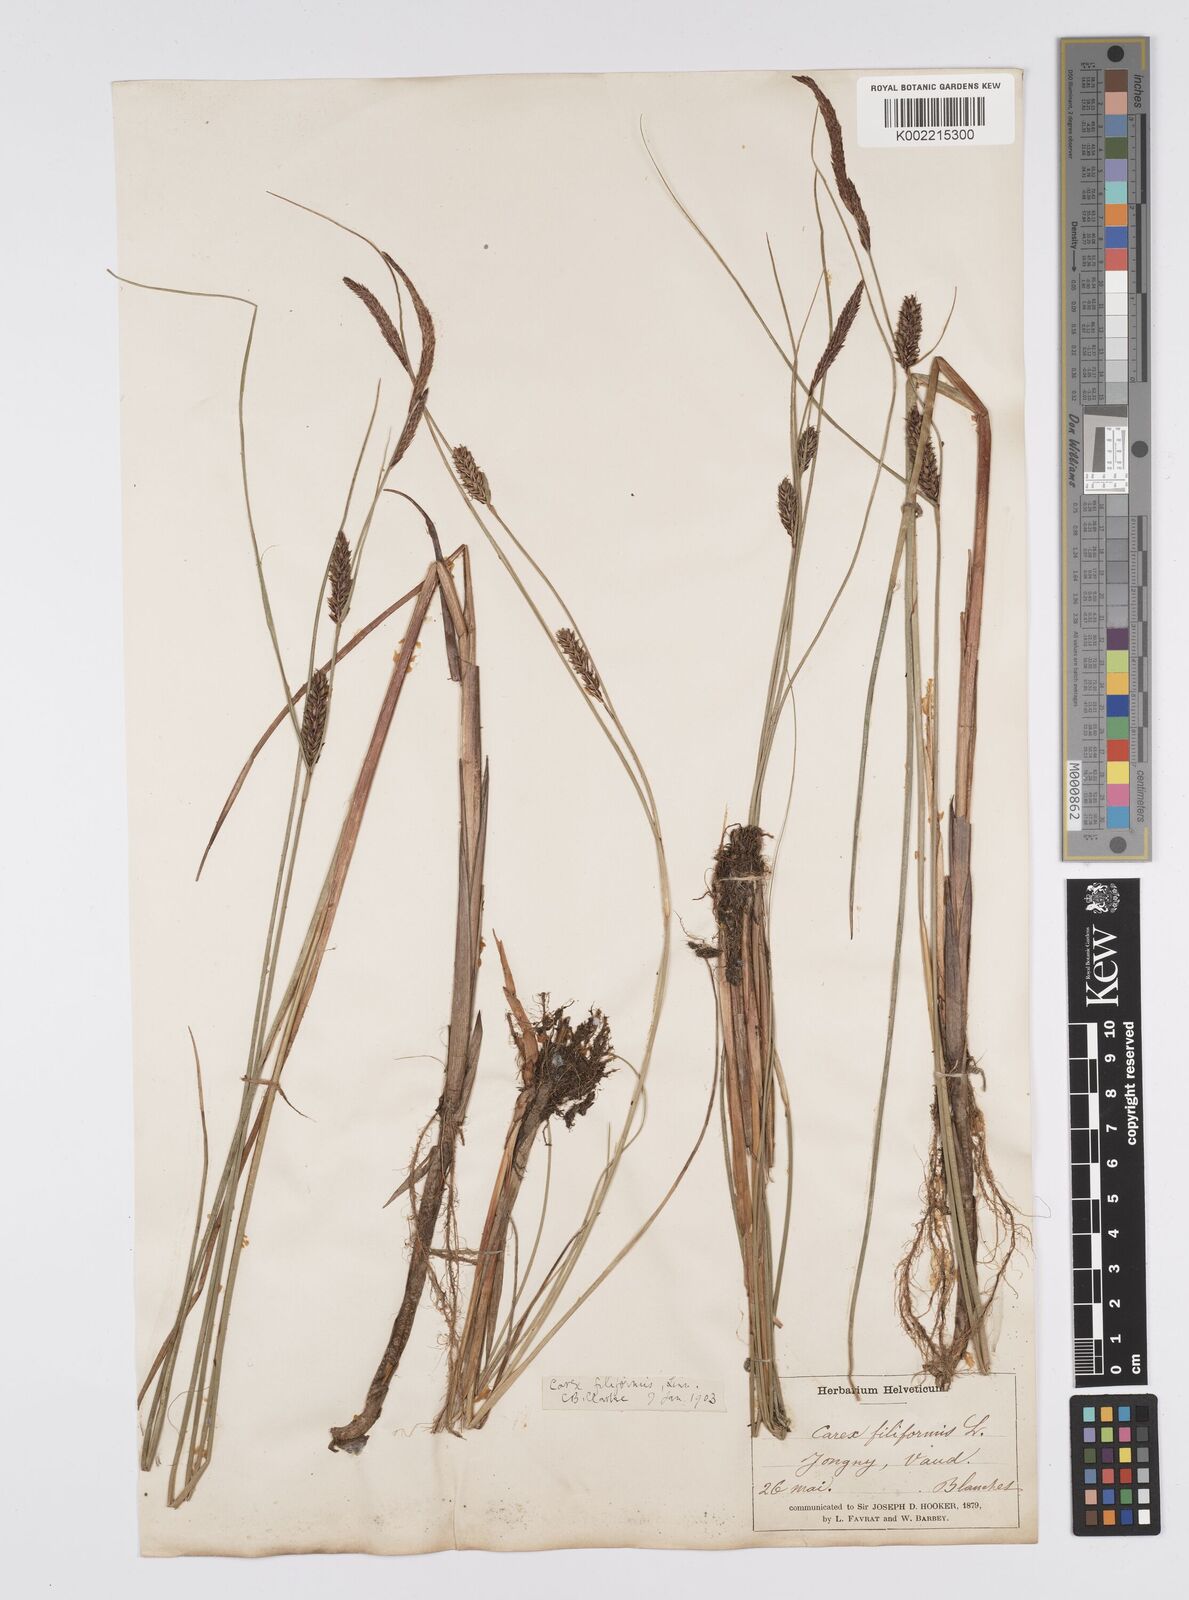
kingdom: Plantae
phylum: Tracheophyta
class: Liliopsida
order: Poales
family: Cyperaceae
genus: Carex
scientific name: Carex lasiocarpa
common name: Slender sedge
